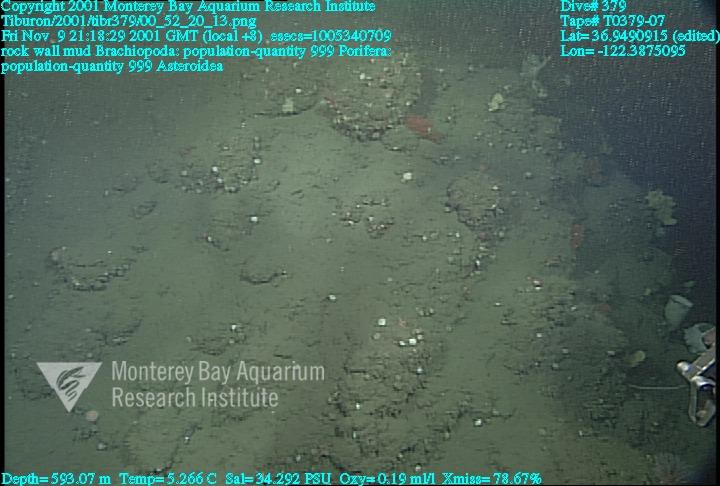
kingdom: Animalia
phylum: Porifera
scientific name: Porifera
